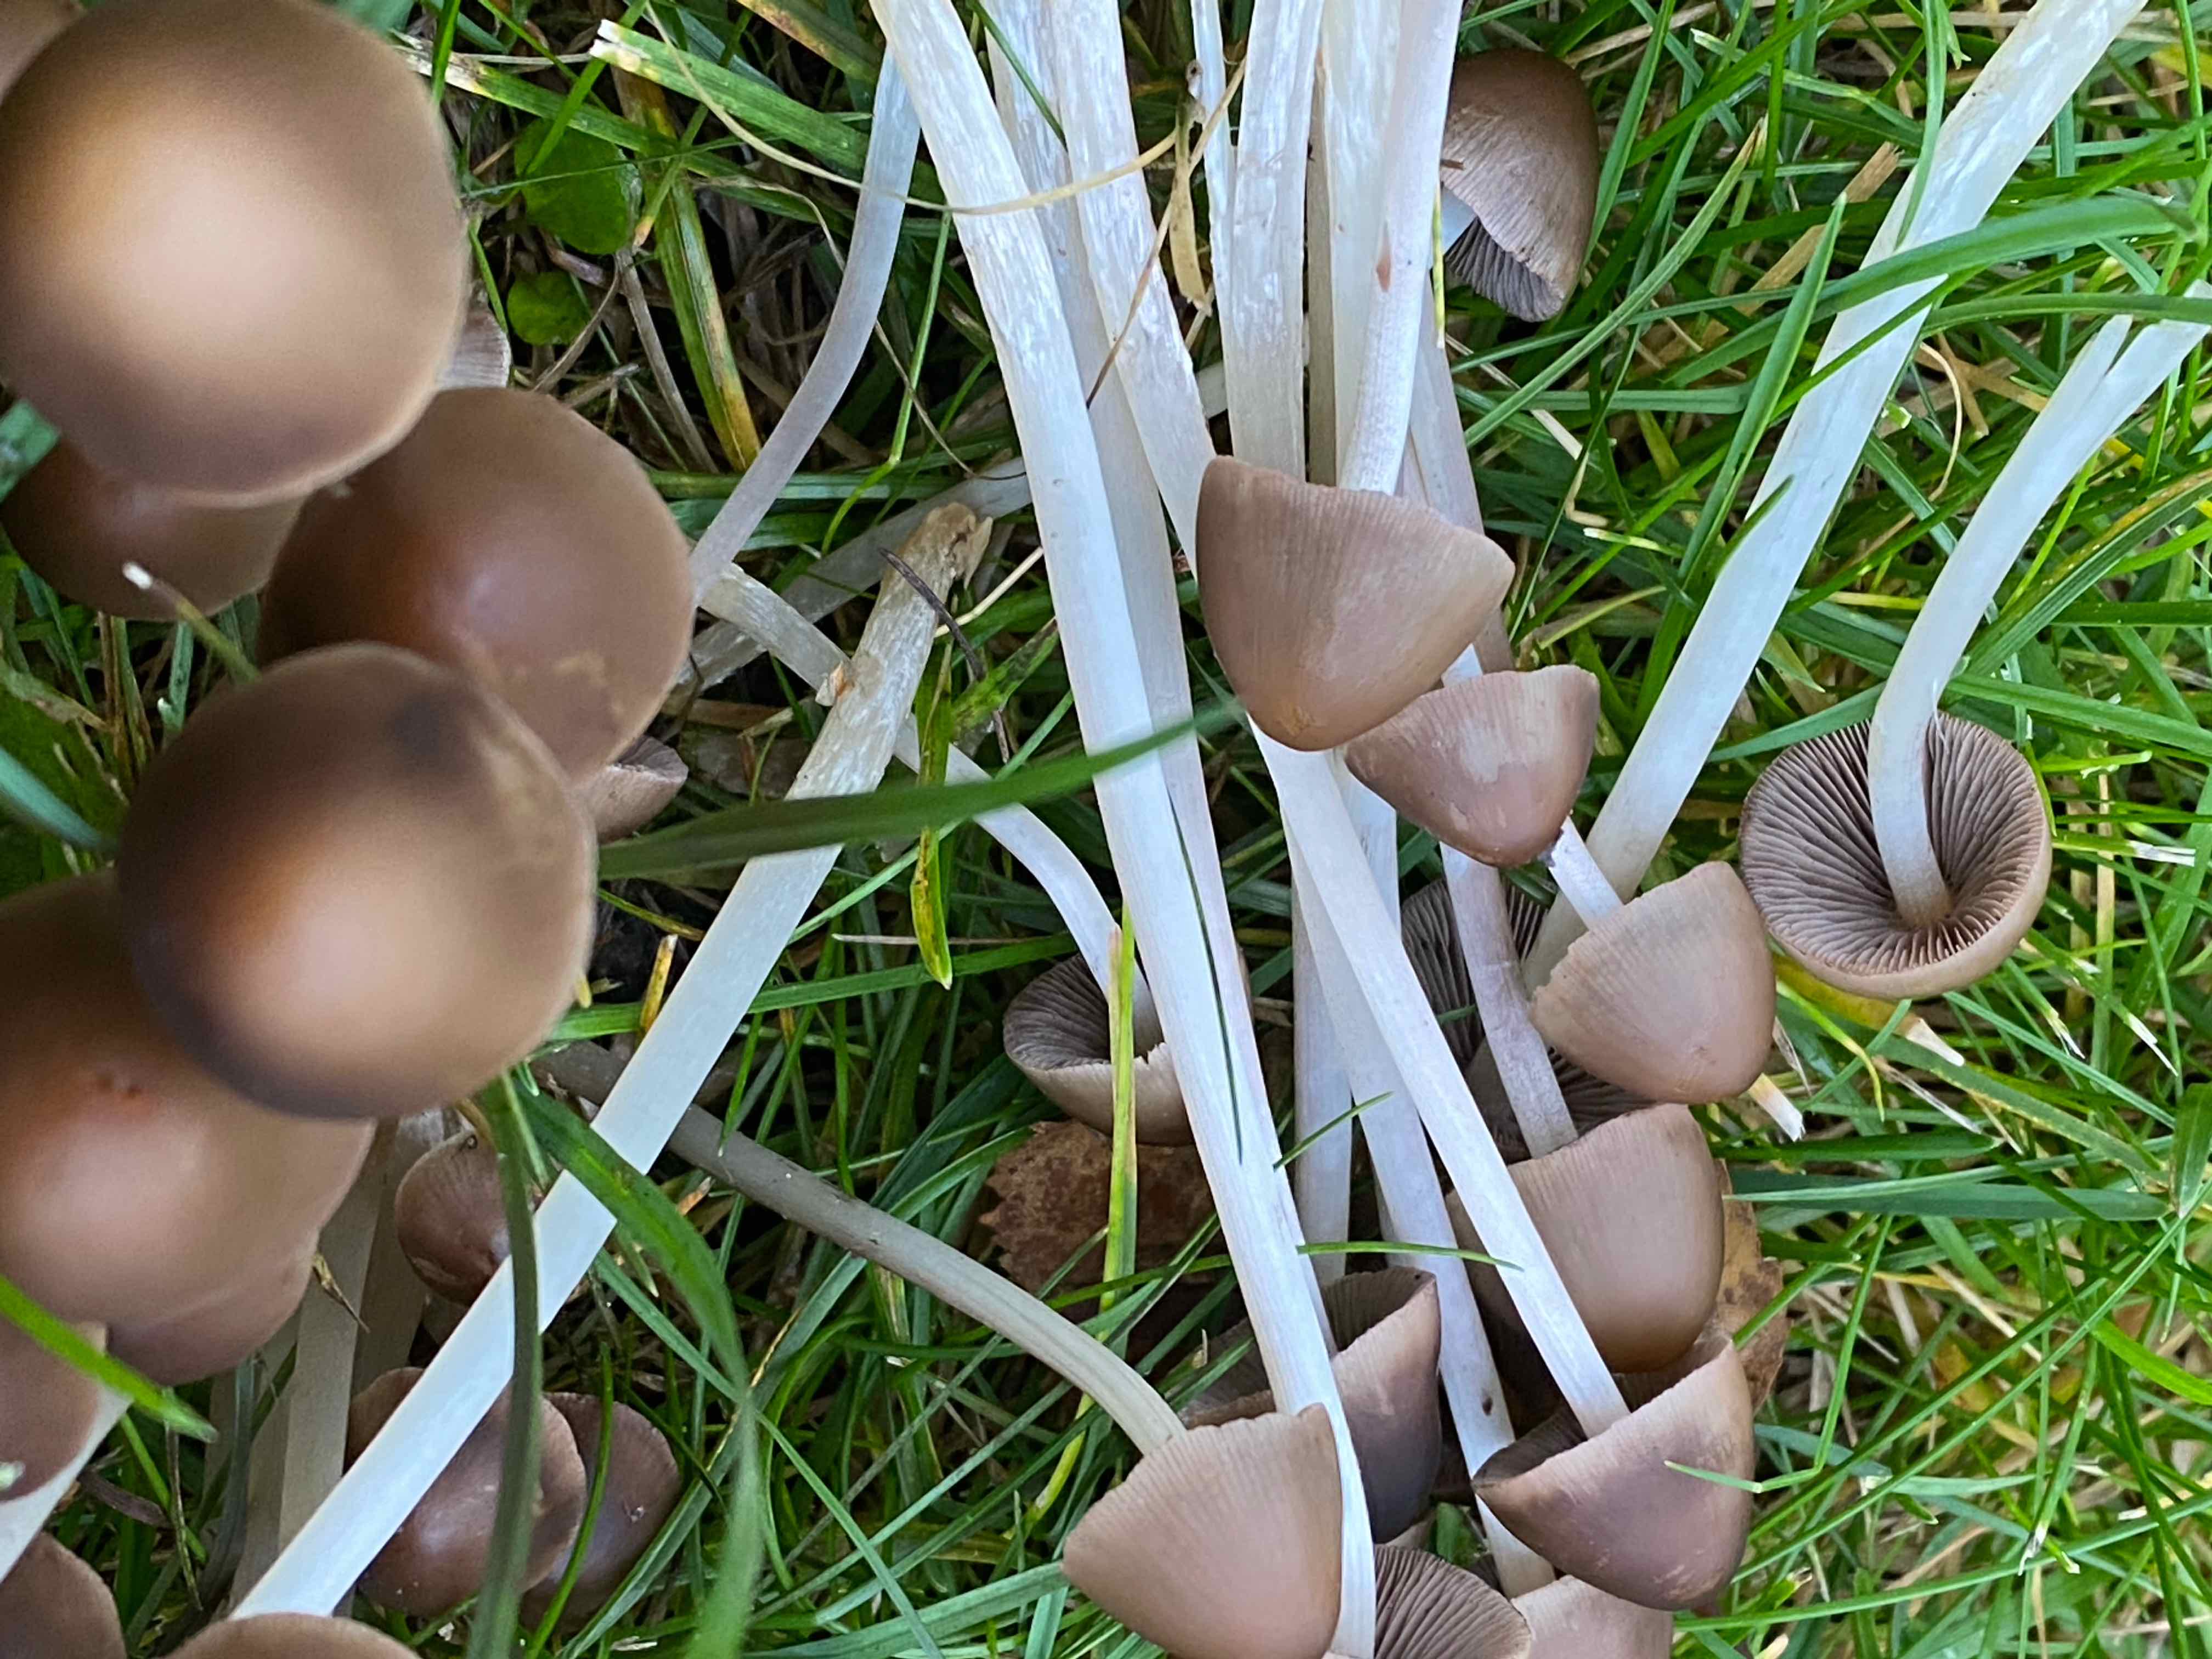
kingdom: Fungi
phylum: Basidiomycota
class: Agaricomycetes
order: Agaricales
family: Psathyrellaceae
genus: Britzelmayria
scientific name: Britzelmayria multipedata
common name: knippe-mørkhat
